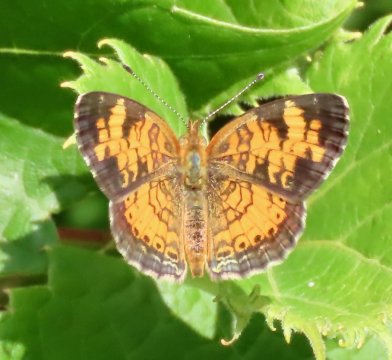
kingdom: Animalia
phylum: Arthropoda
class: Insecta
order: Lepidoptera
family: Nymphalidae
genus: Phyciodes
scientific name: Phyciodes tharos
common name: Pearl Crescent
